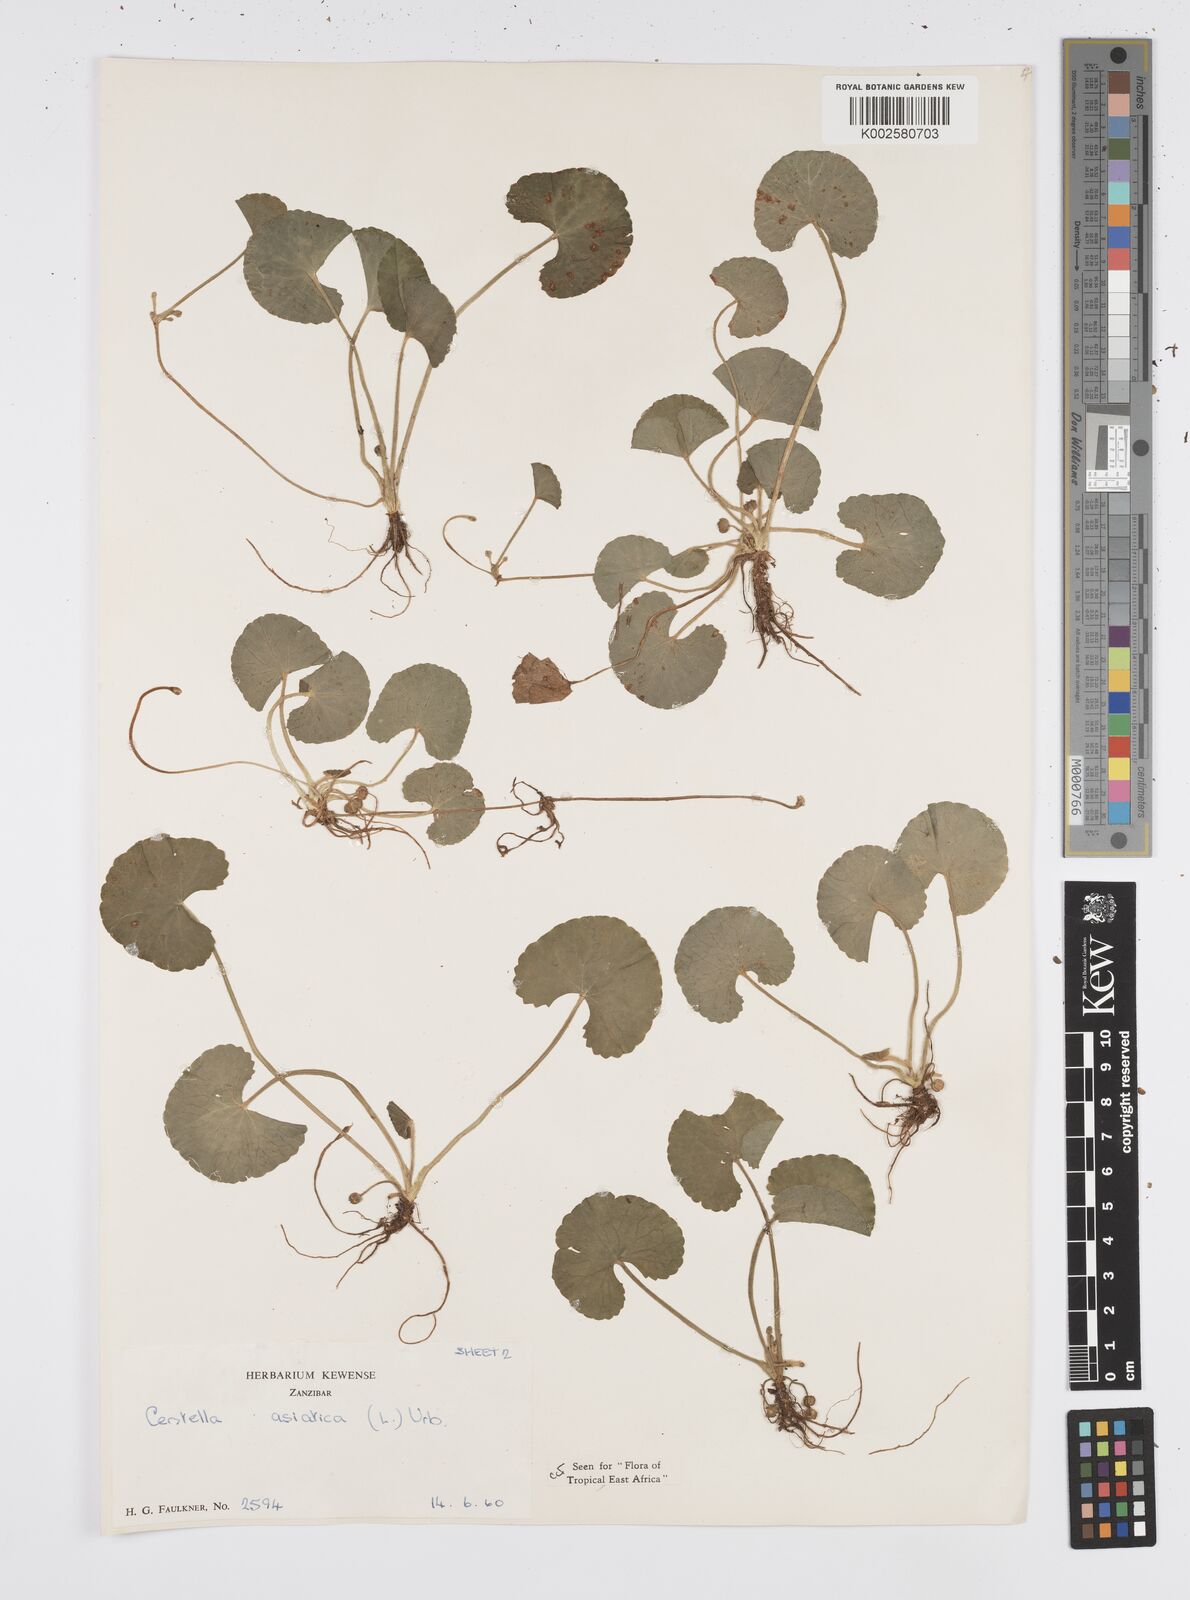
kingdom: Plantae
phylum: Tracheophyta
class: Magnoliopsida
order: Apiales
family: Apiaceae
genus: Centella
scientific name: Centella asiatica
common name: Spadeleaf
